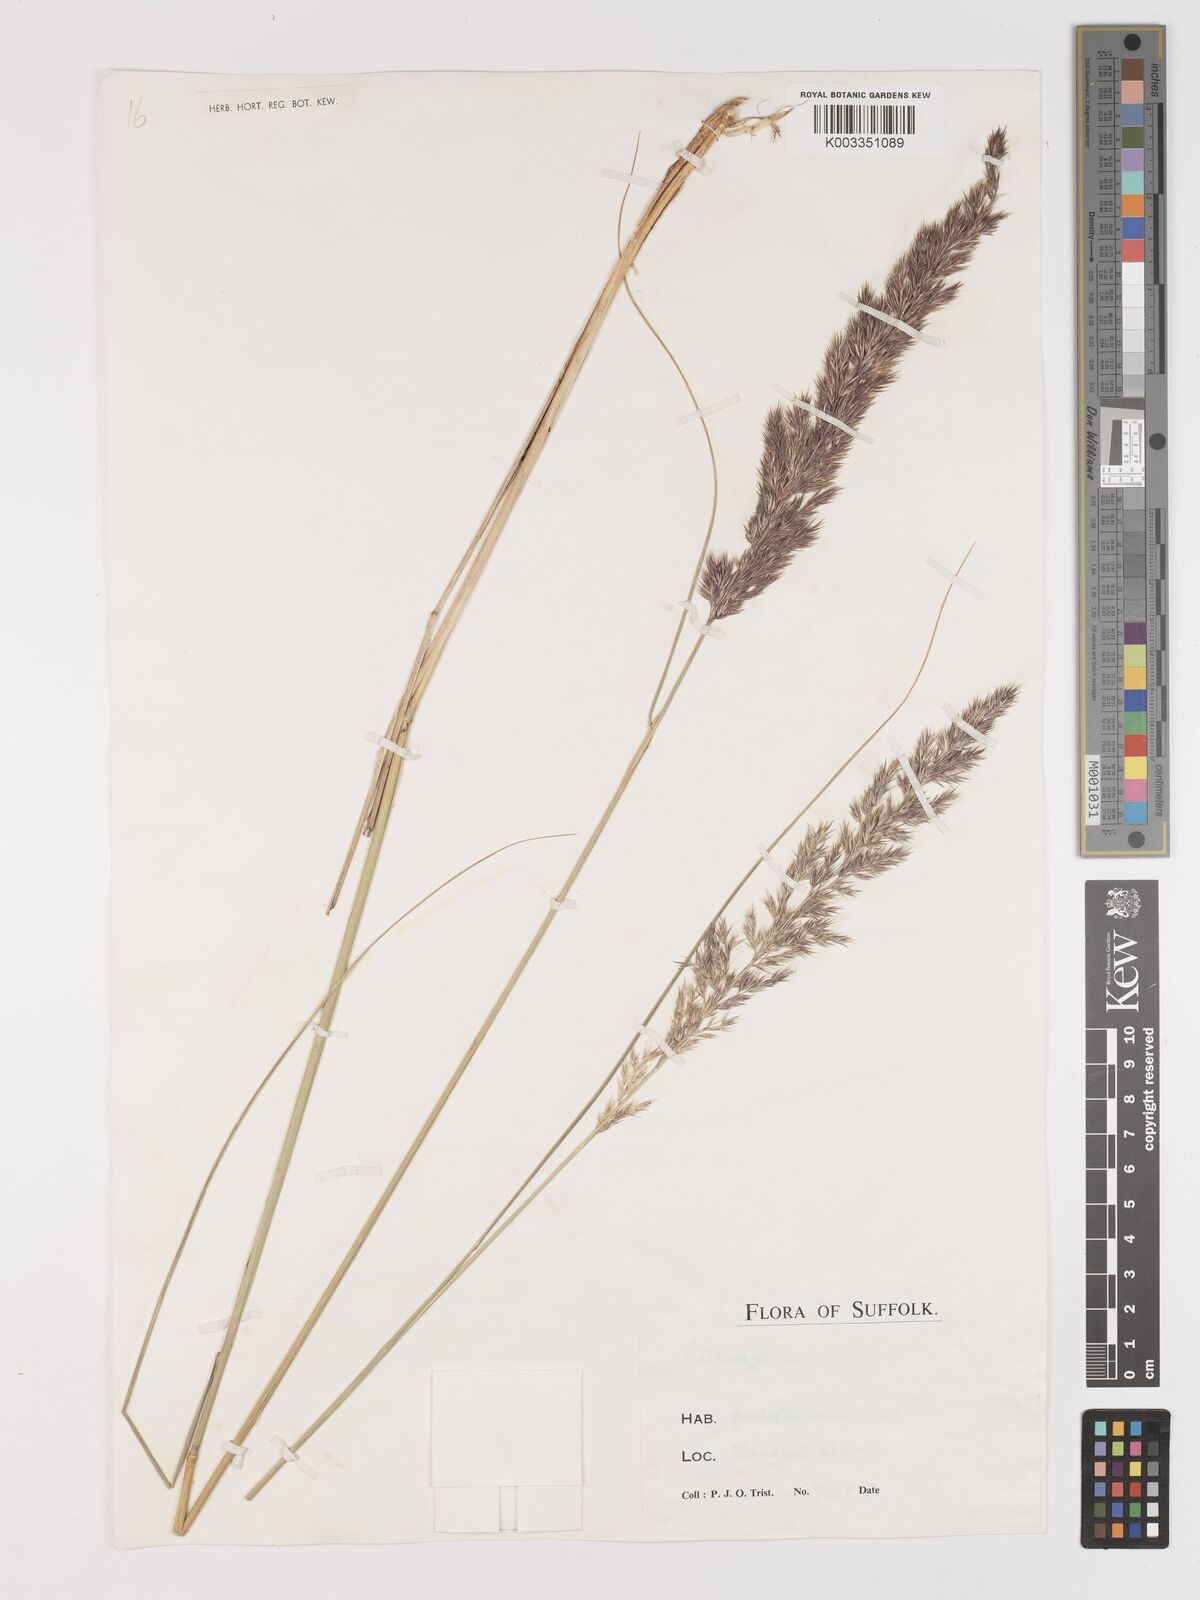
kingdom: Plantae
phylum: Tracheophyta
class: Liliopsida
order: Poales
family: Poaceae
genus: Calamagrostis
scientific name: Calamagrostis
